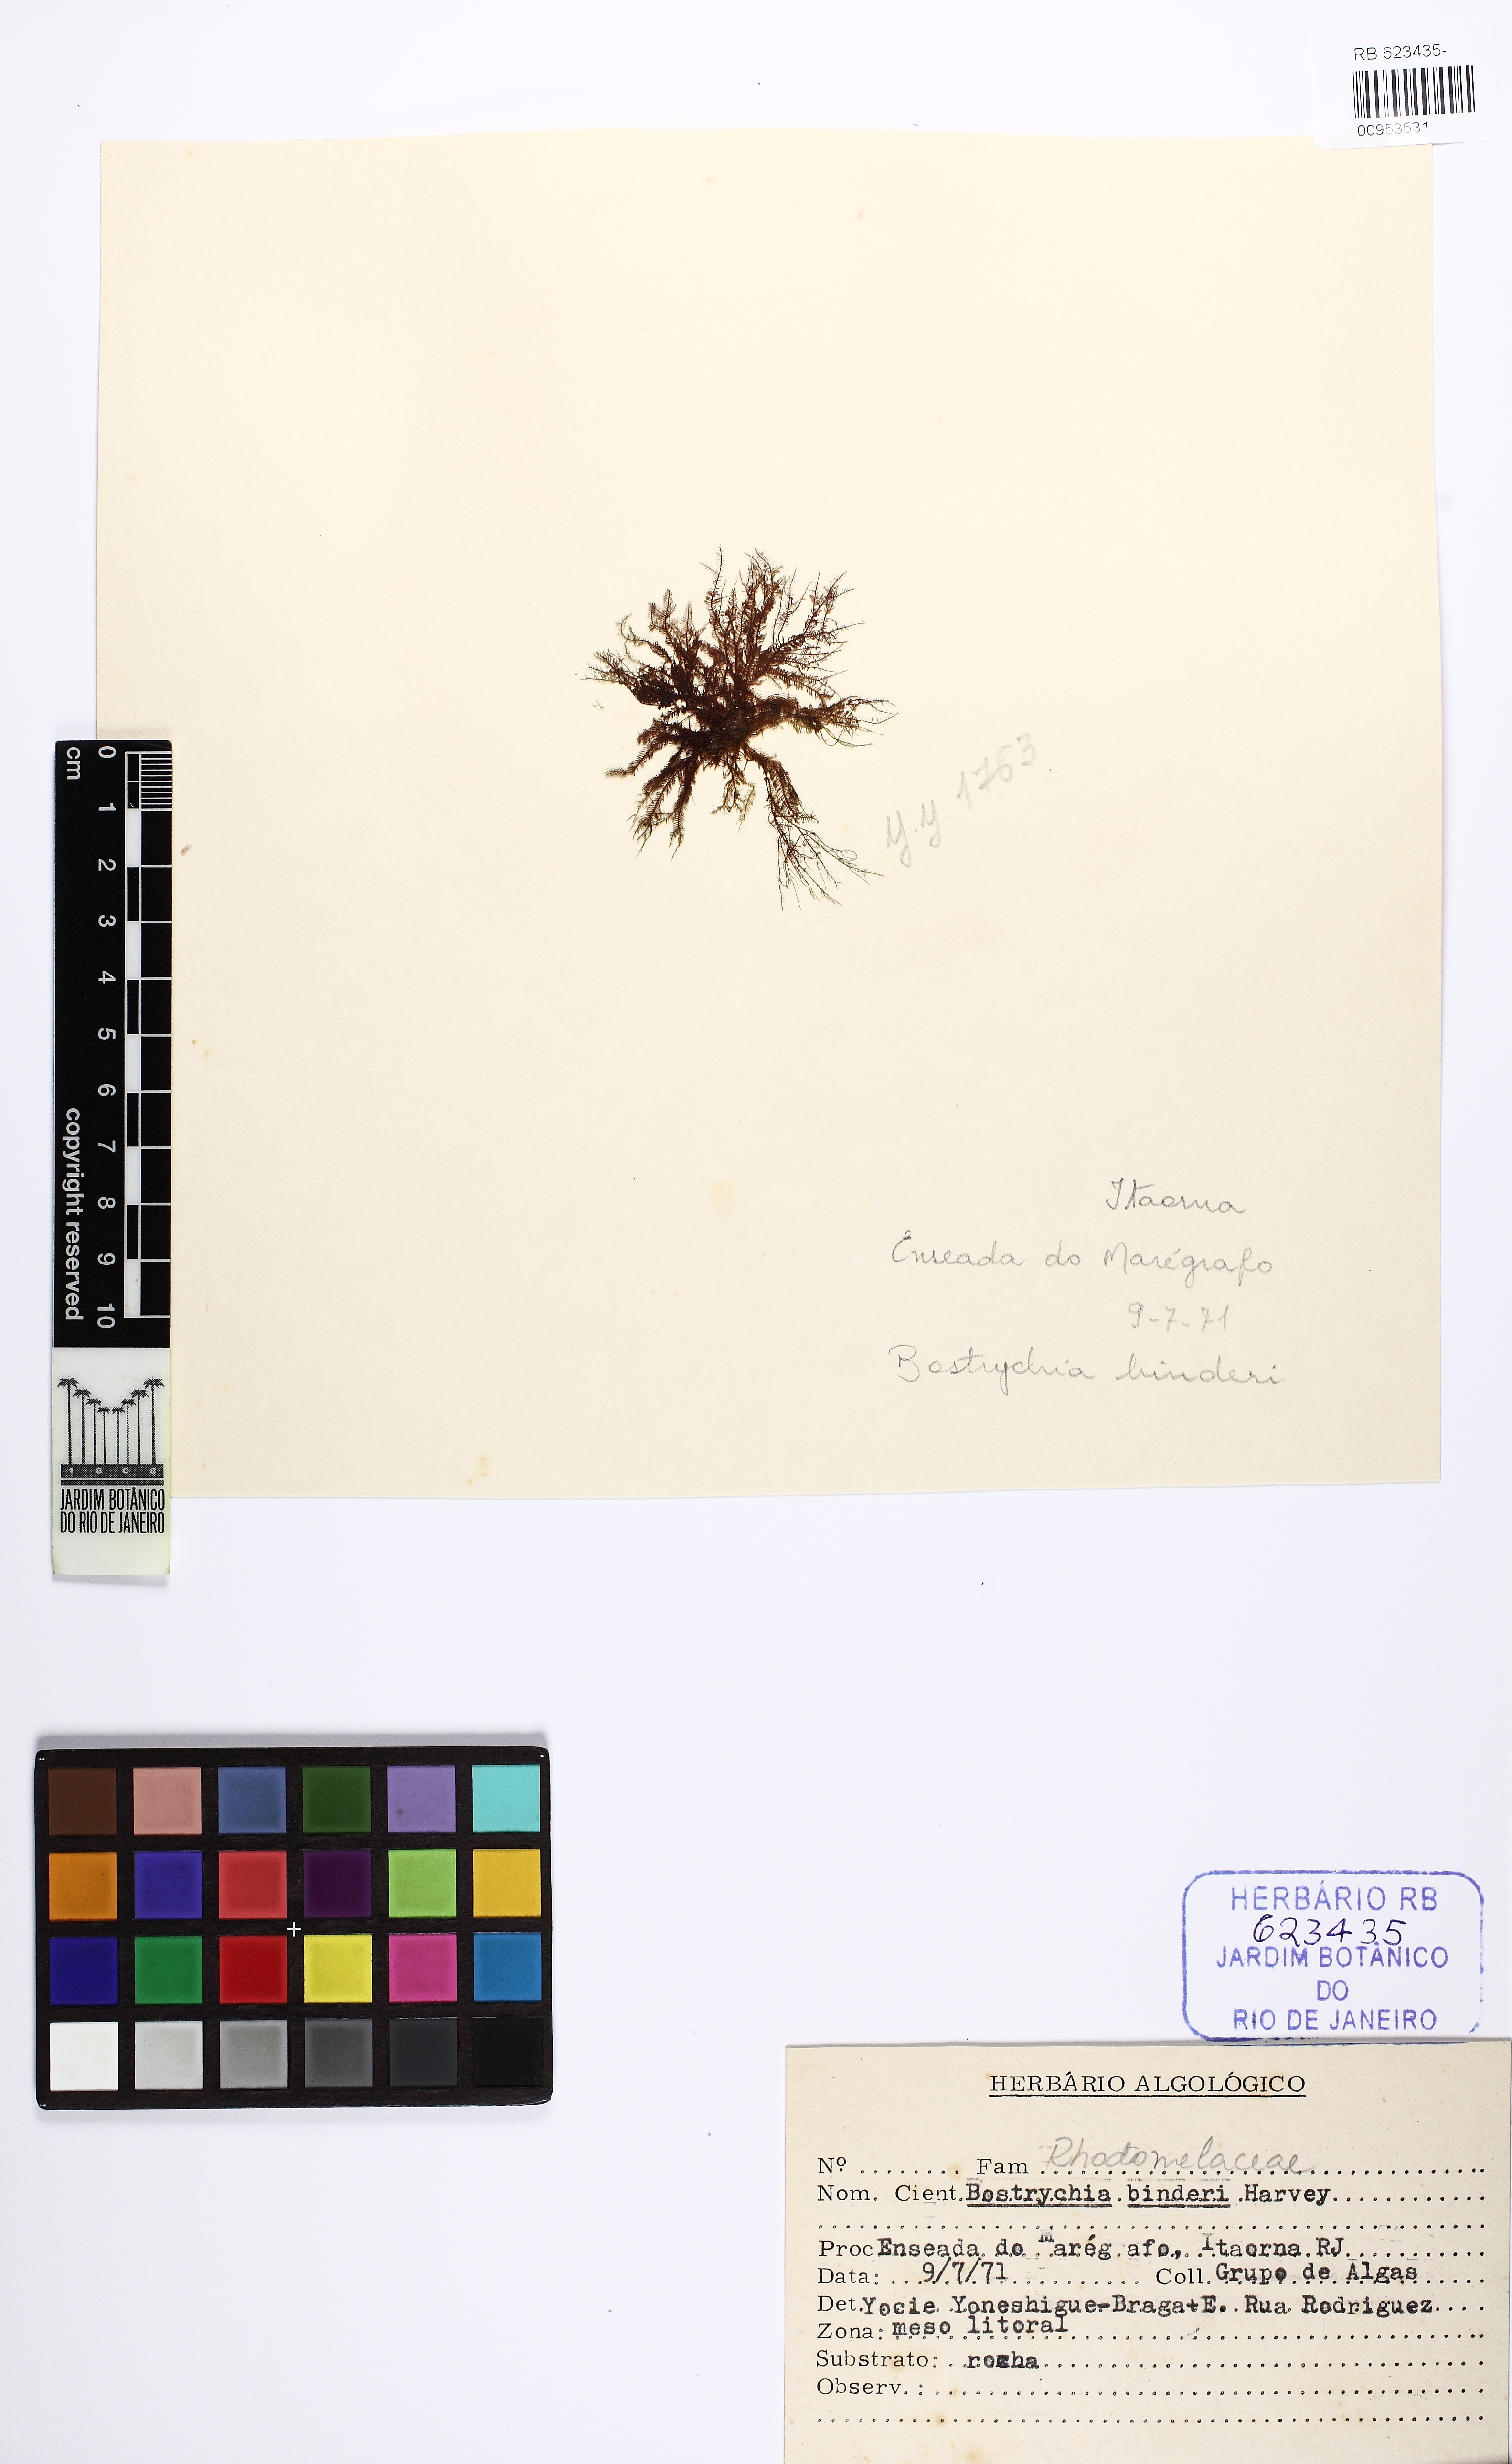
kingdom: Plantae
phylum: Rhodophyta
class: Florideophyceae
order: Ceramiales
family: Rhodomelaceae
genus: Bostrychia
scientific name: Bostrychia tenella
